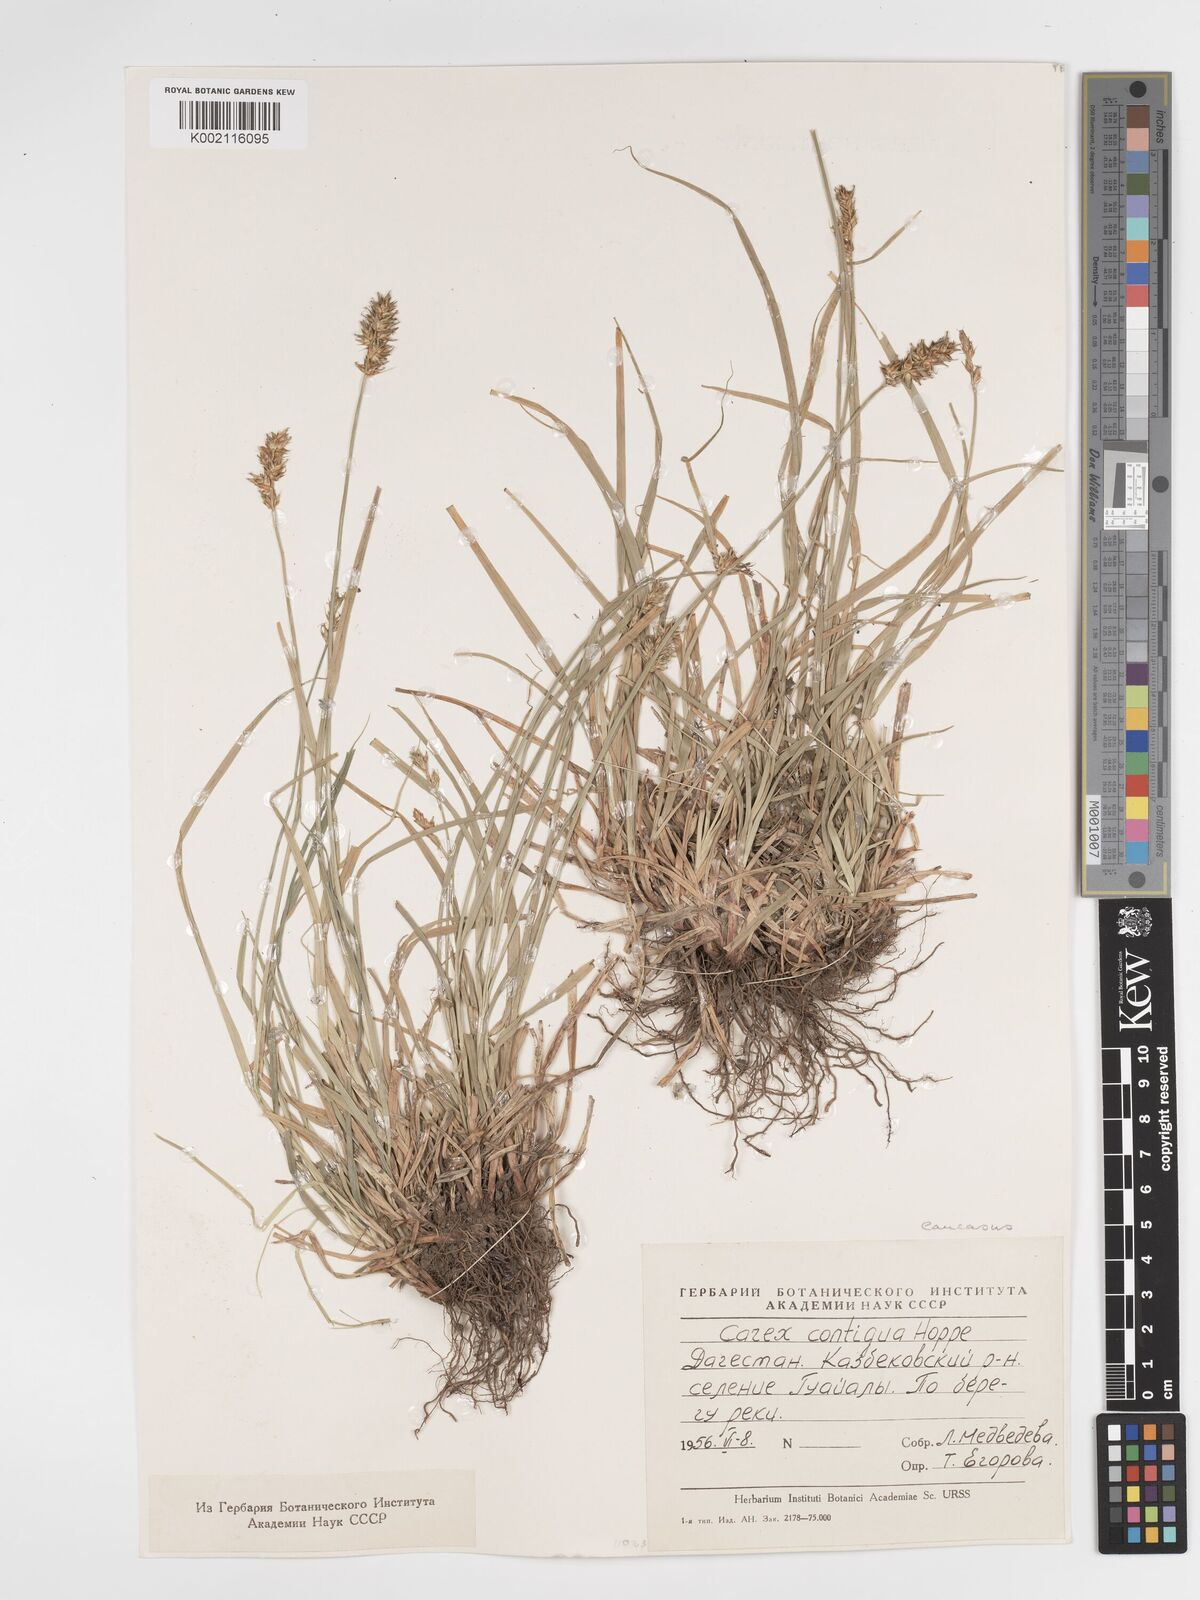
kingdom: Plantae
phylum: Tracheophyta
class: Liliopsida
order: Poales
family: Cyperaceae
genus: Carex
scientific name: Carex spicata
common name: Spiked sedge
